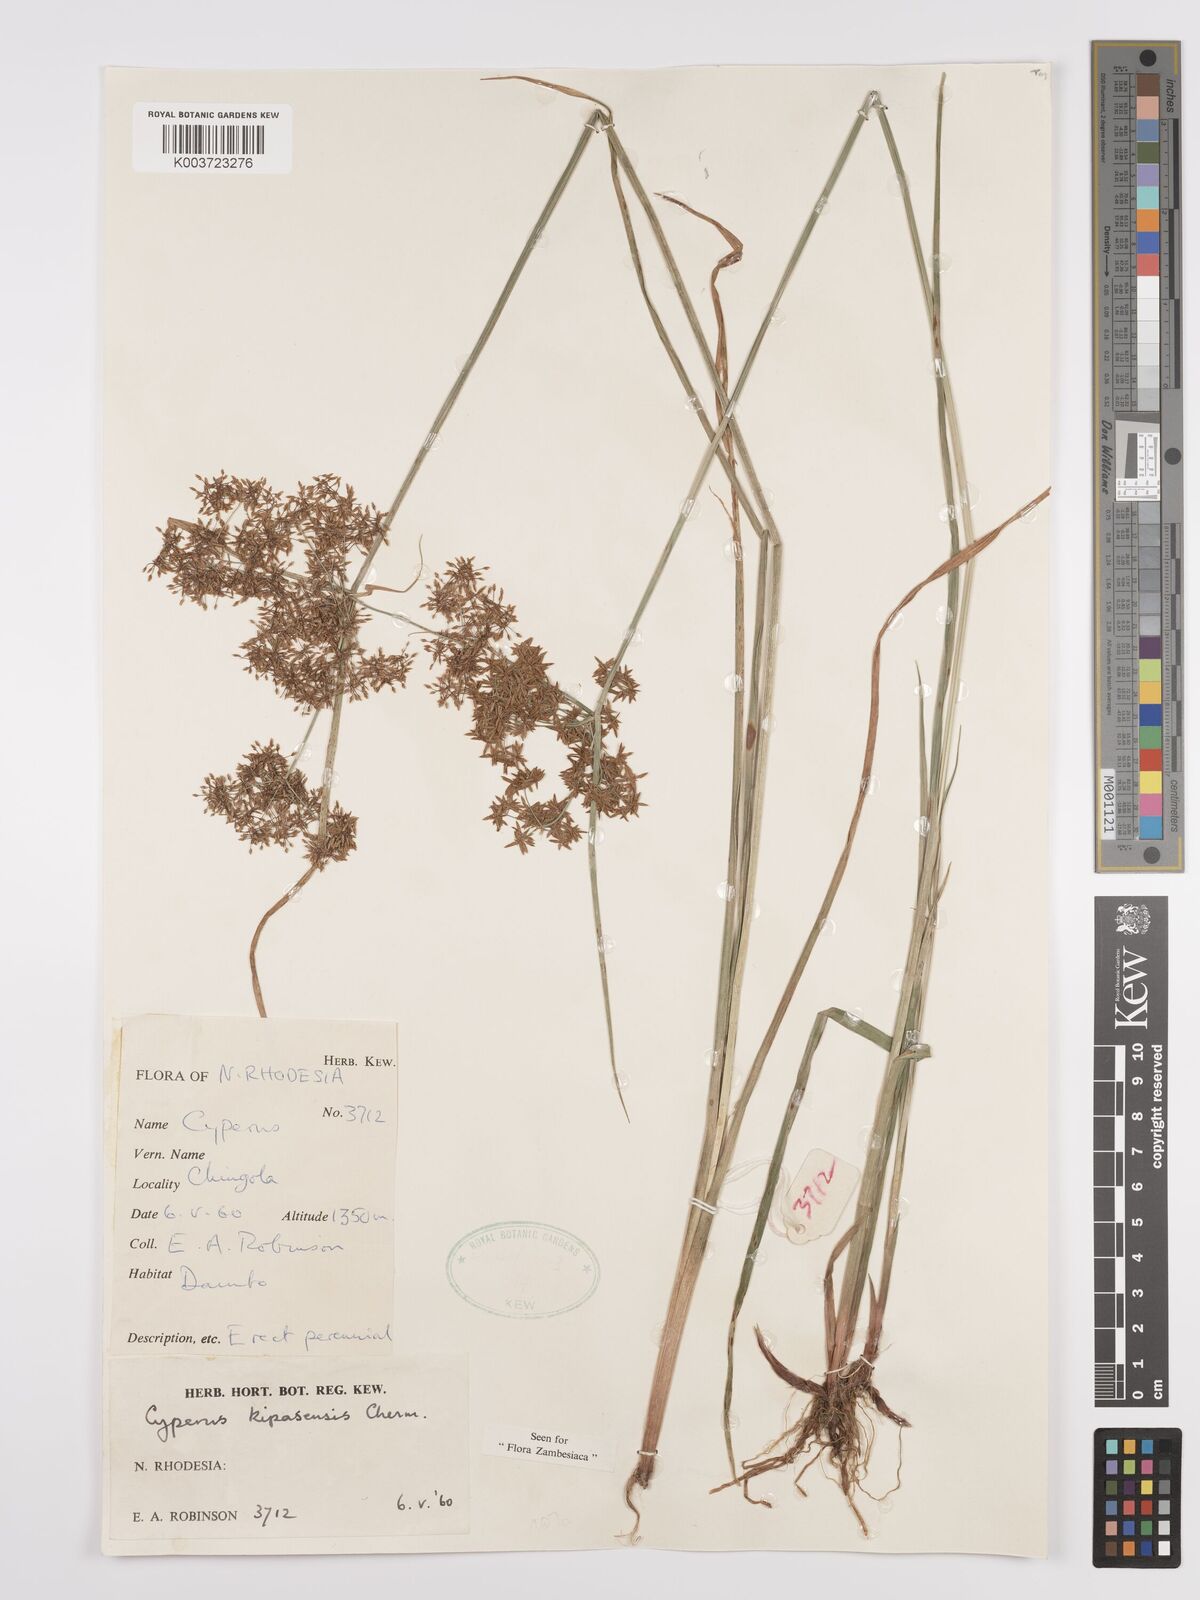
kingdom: Plantae
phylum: Tracheophyta
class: Liliopsida
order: Poales
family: Cyperaceae
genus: Cyperus
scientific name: Cyperus kipasensis
